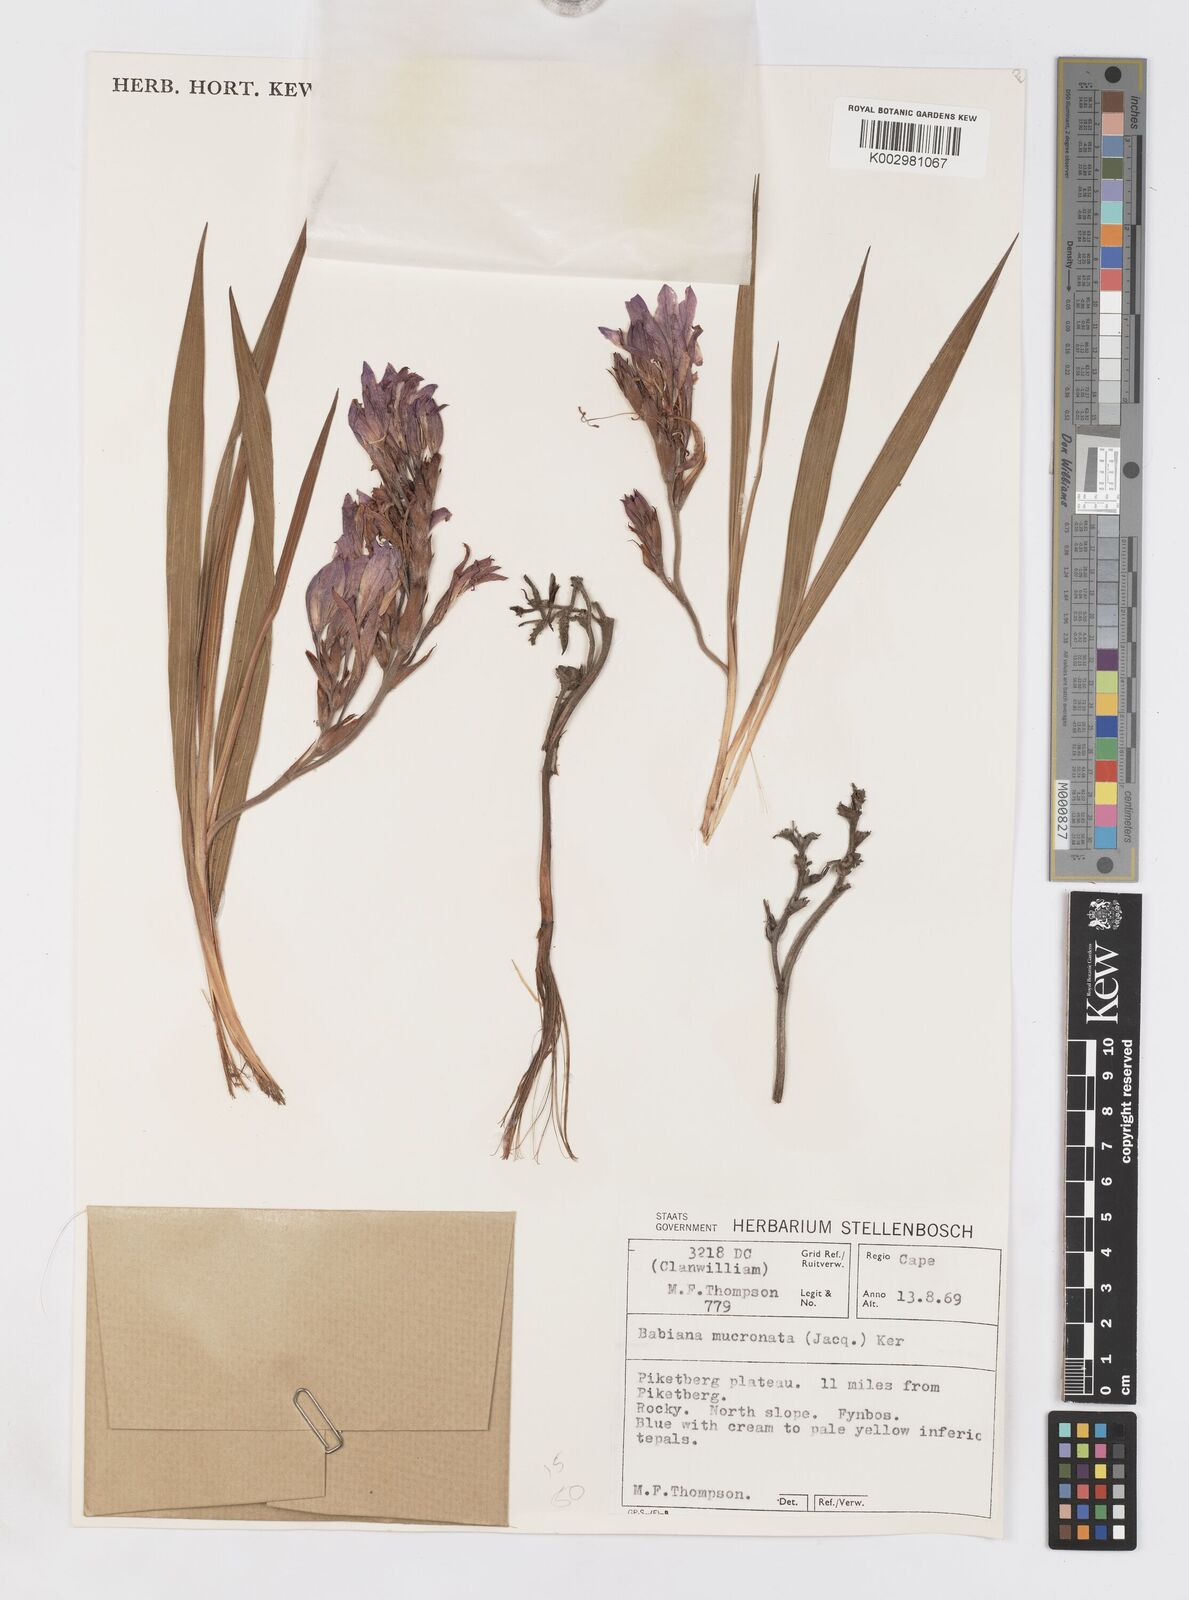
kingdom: Plantae
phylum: Tracheophyta
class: Liliopsida
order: Asparagales
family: Iridaceae
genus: Babiana
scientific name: Babiana mucronata
